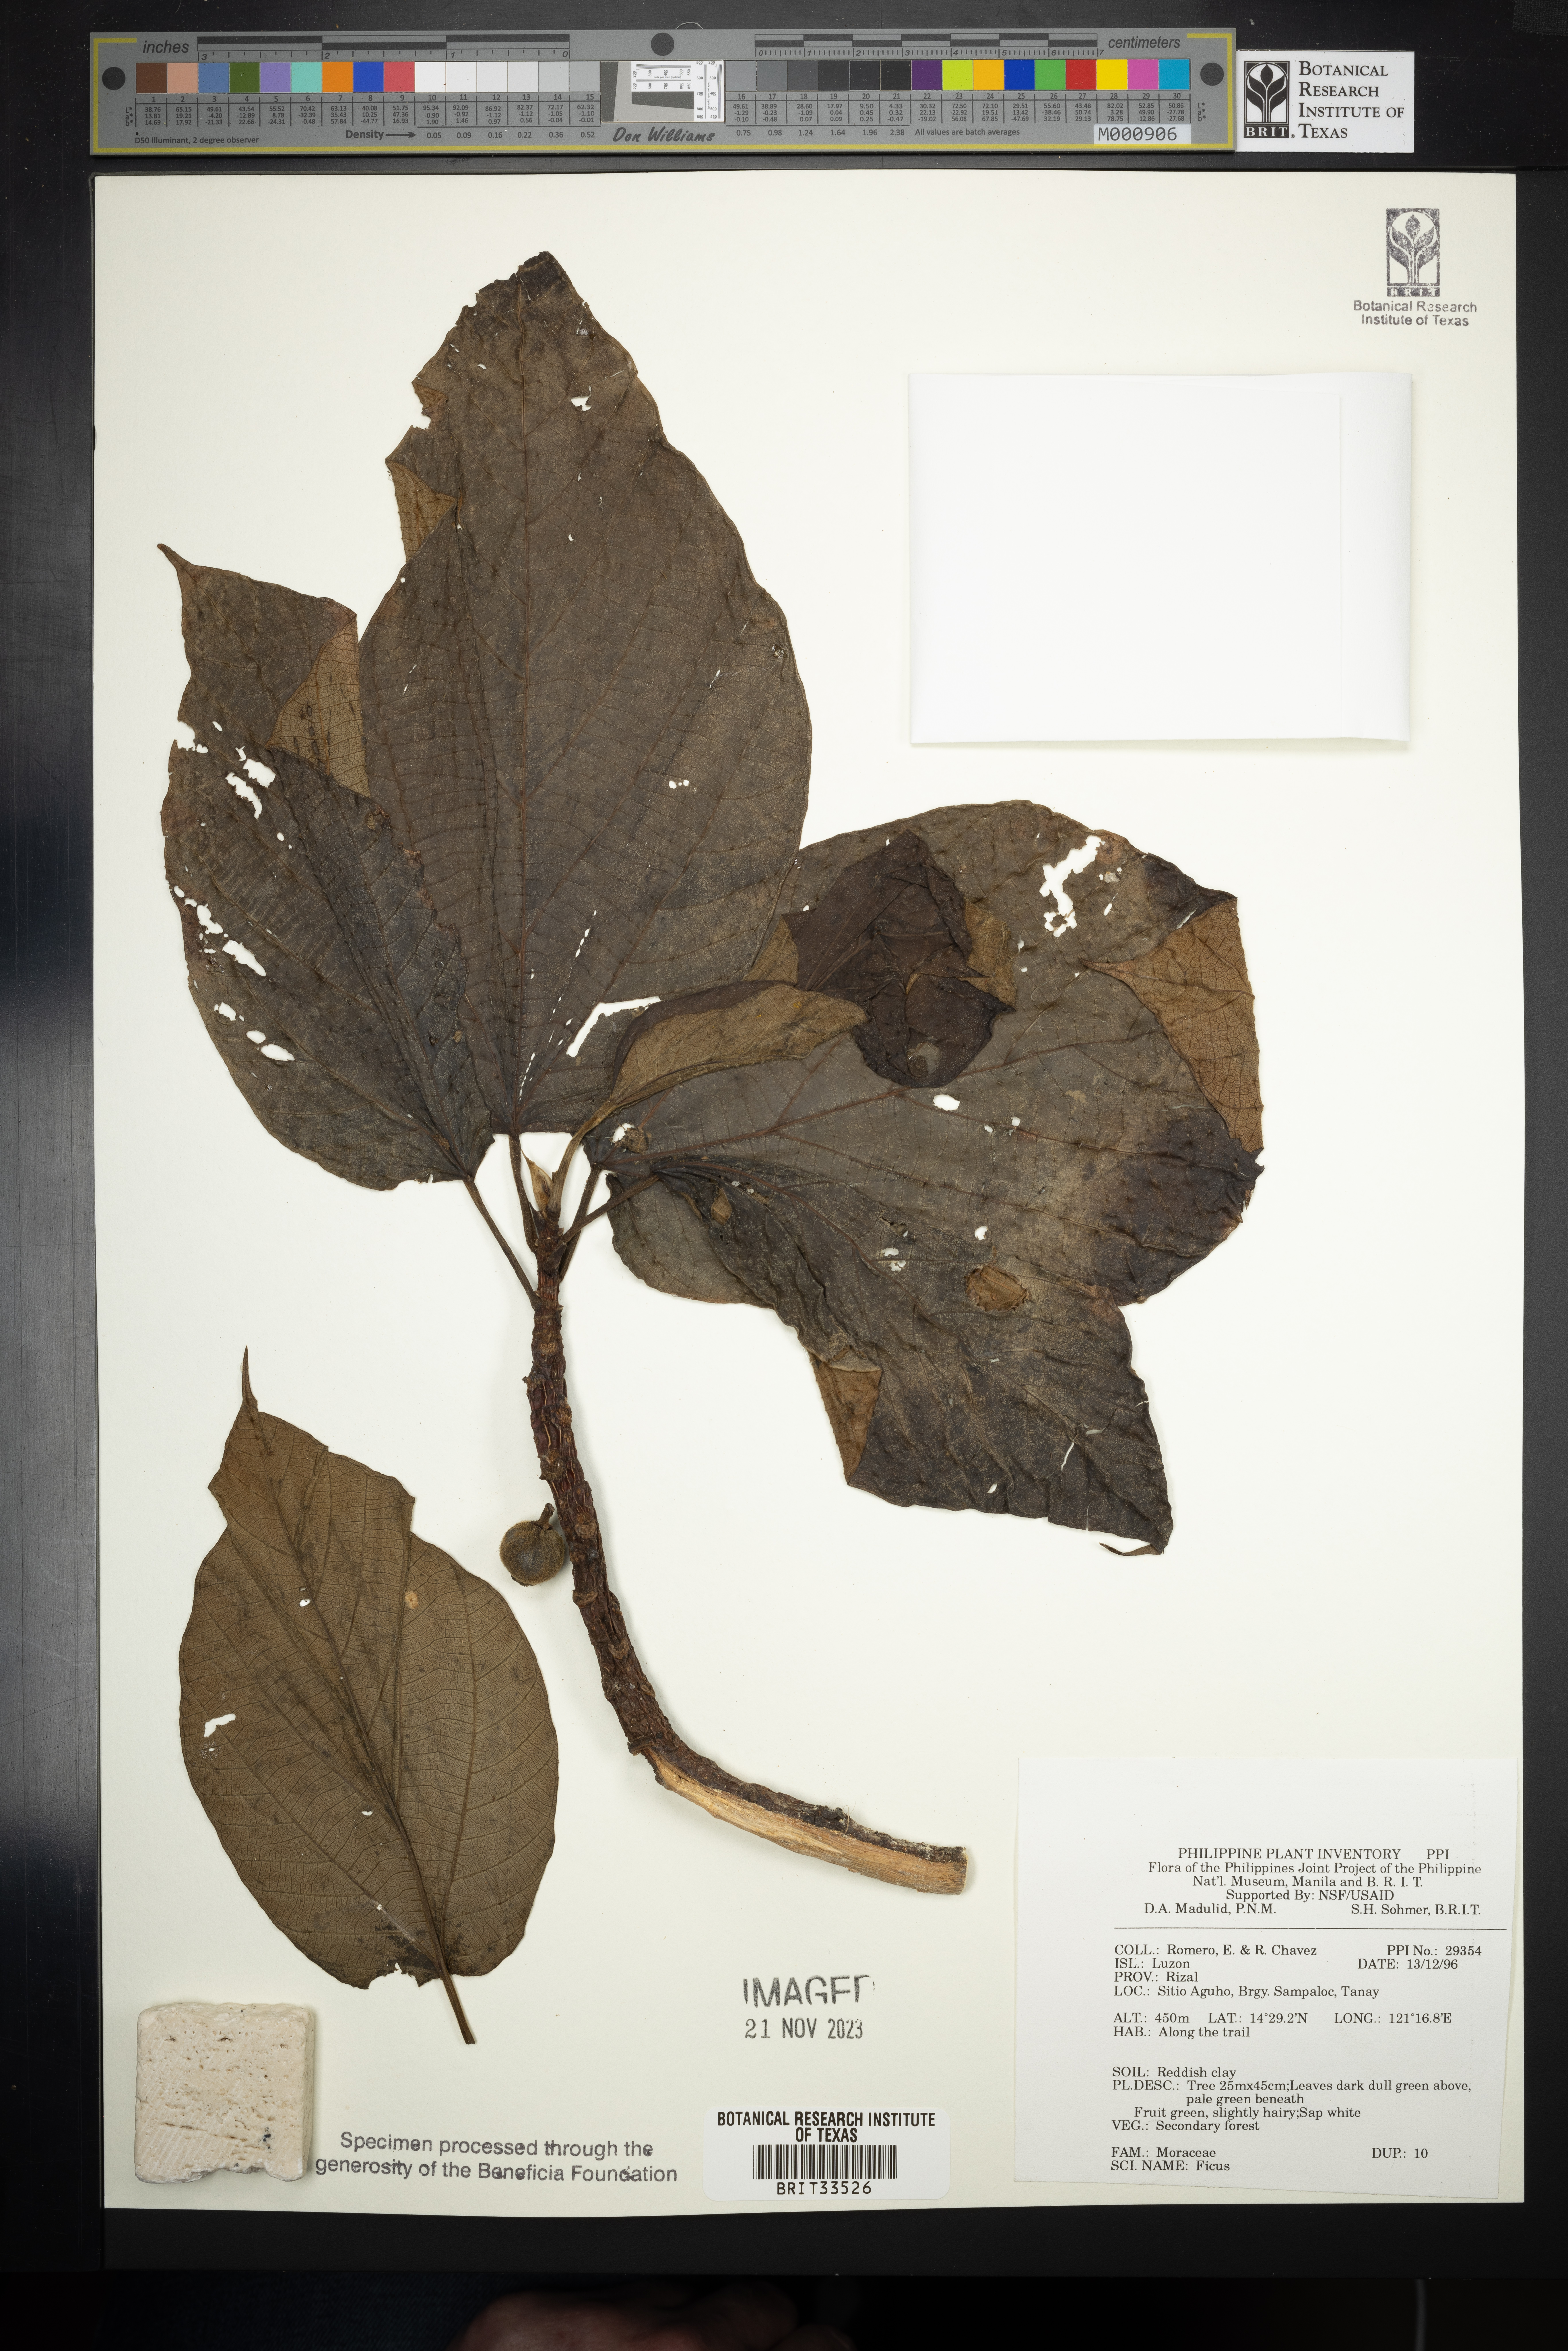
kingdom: Plantae
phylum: Tracheophyta
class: Magnoliopsida
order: Rosales
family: Moraceae
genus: Ficus
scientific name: Ficus
